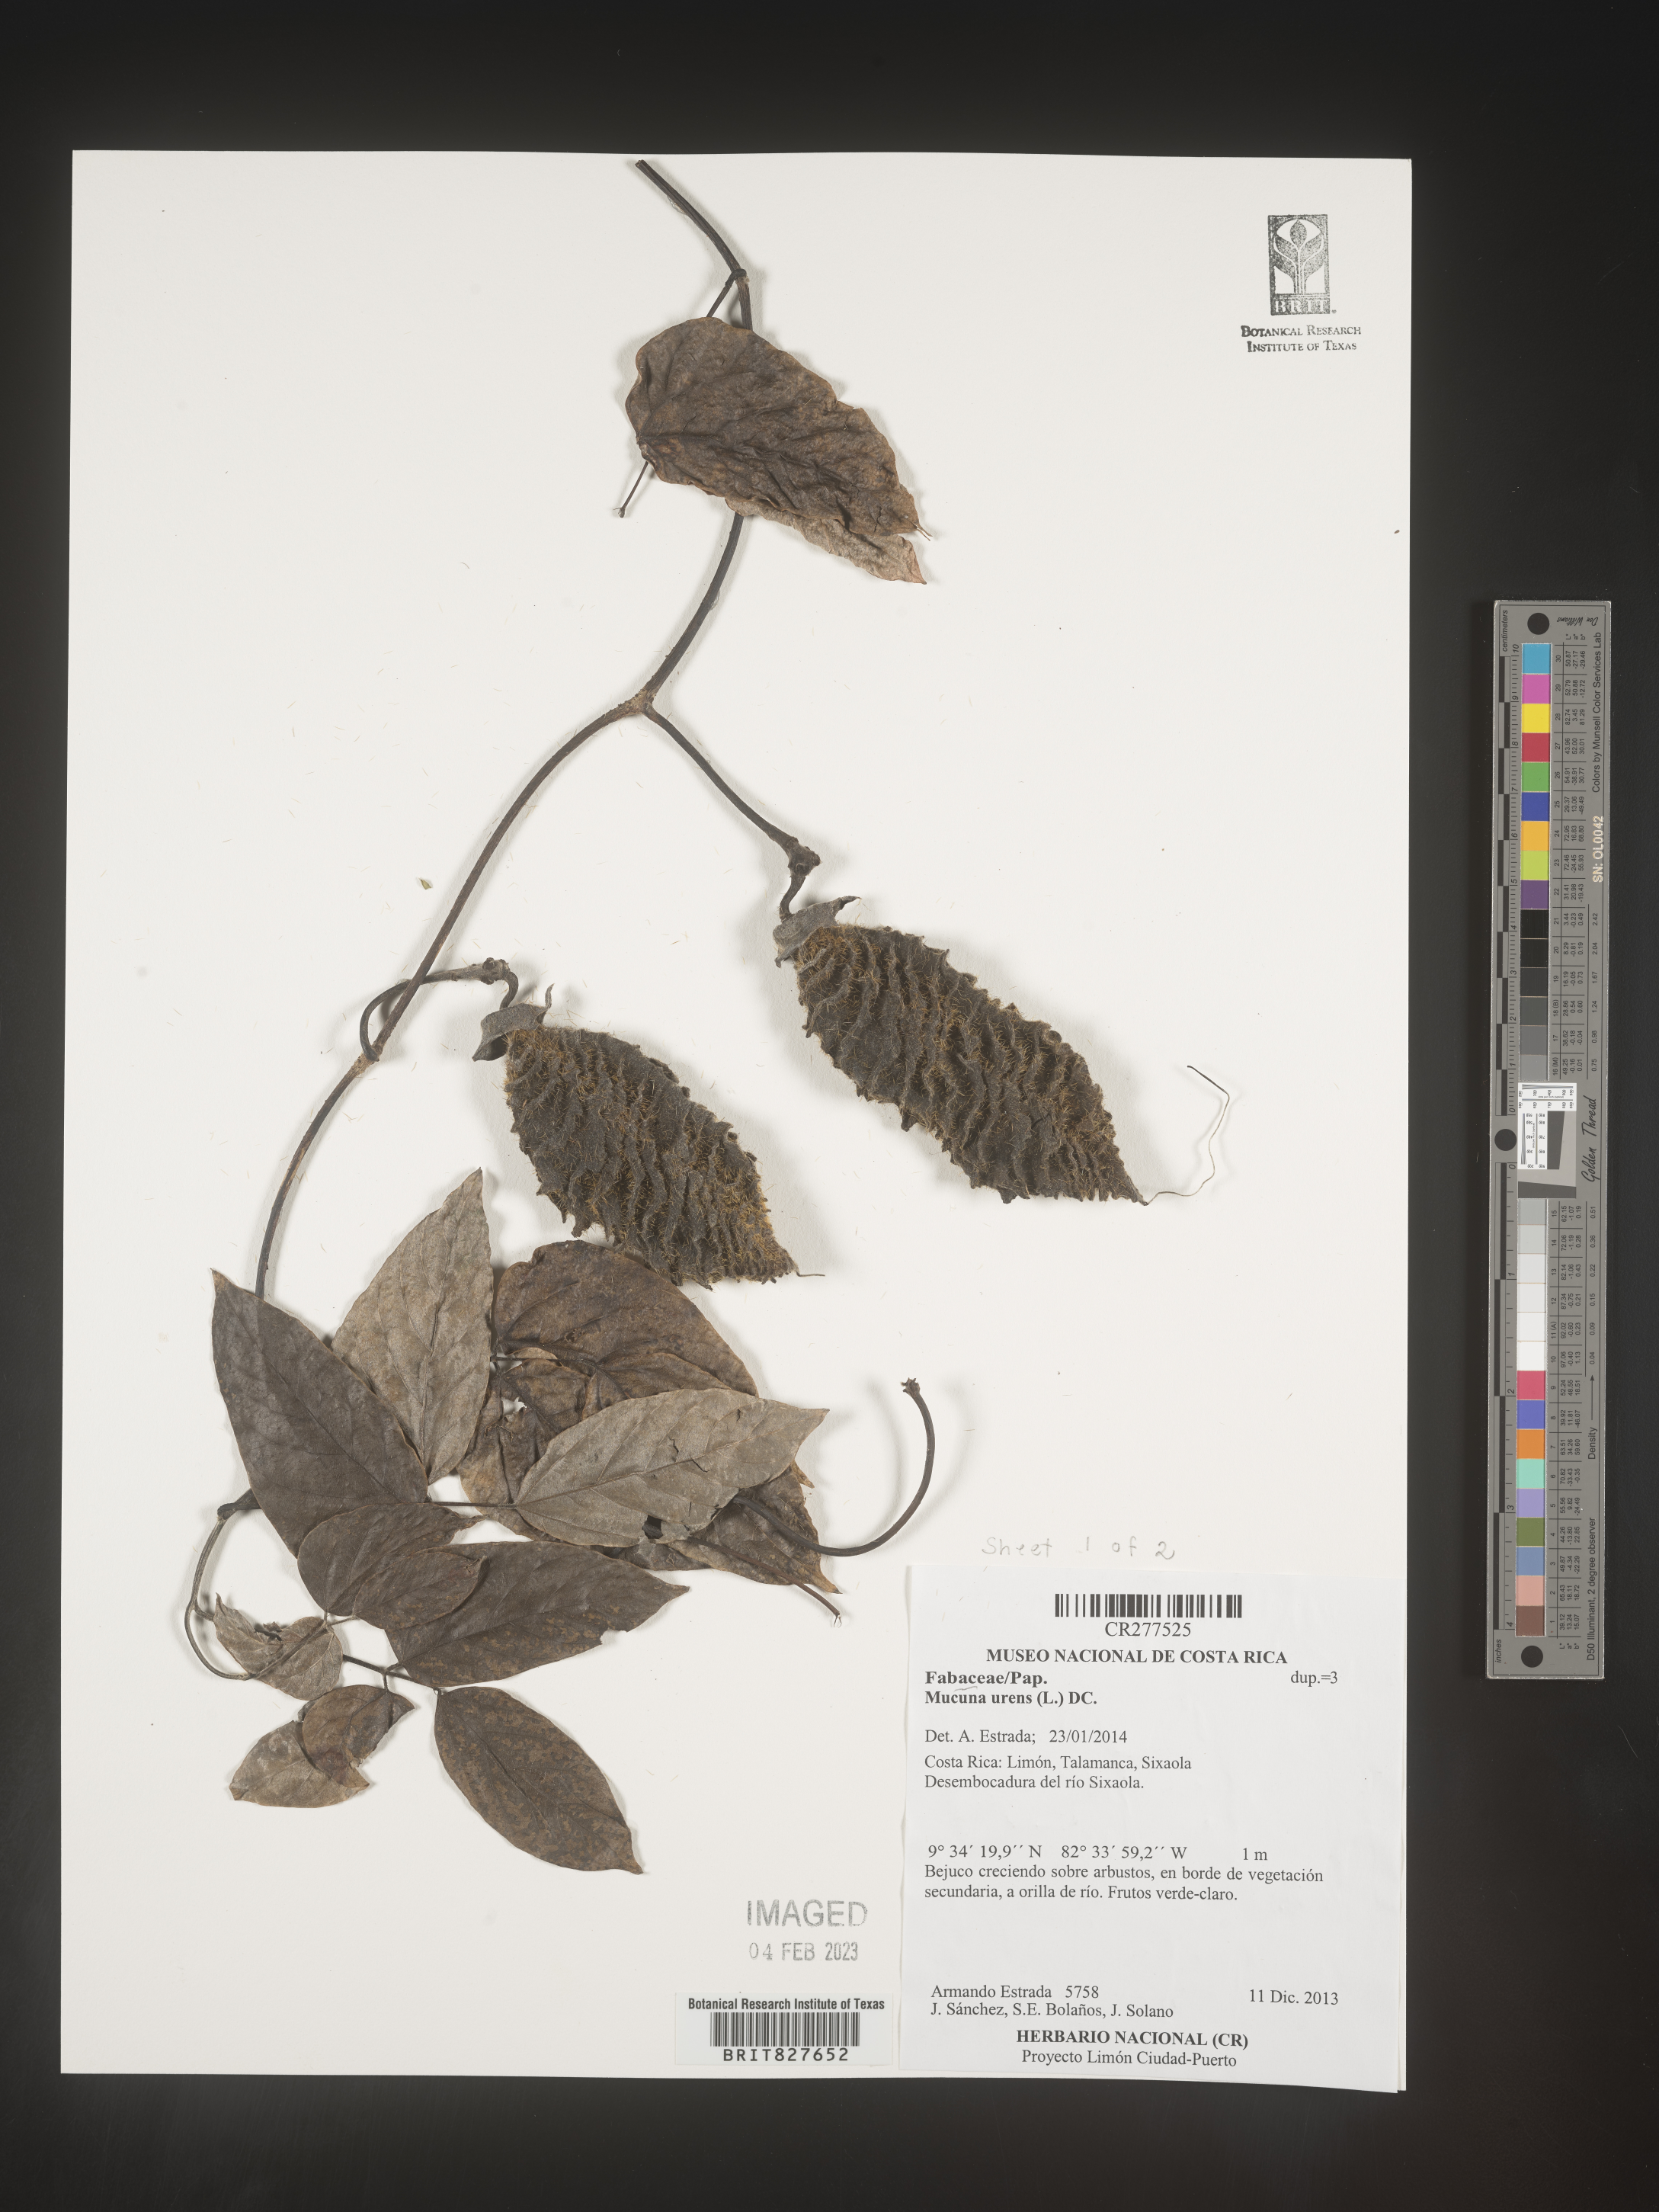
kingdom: Plantae
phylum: Tracheophyta
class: Magnoliopsida
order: Fabales
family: Fabaceae
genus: Mucuna
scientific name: Mucuna
